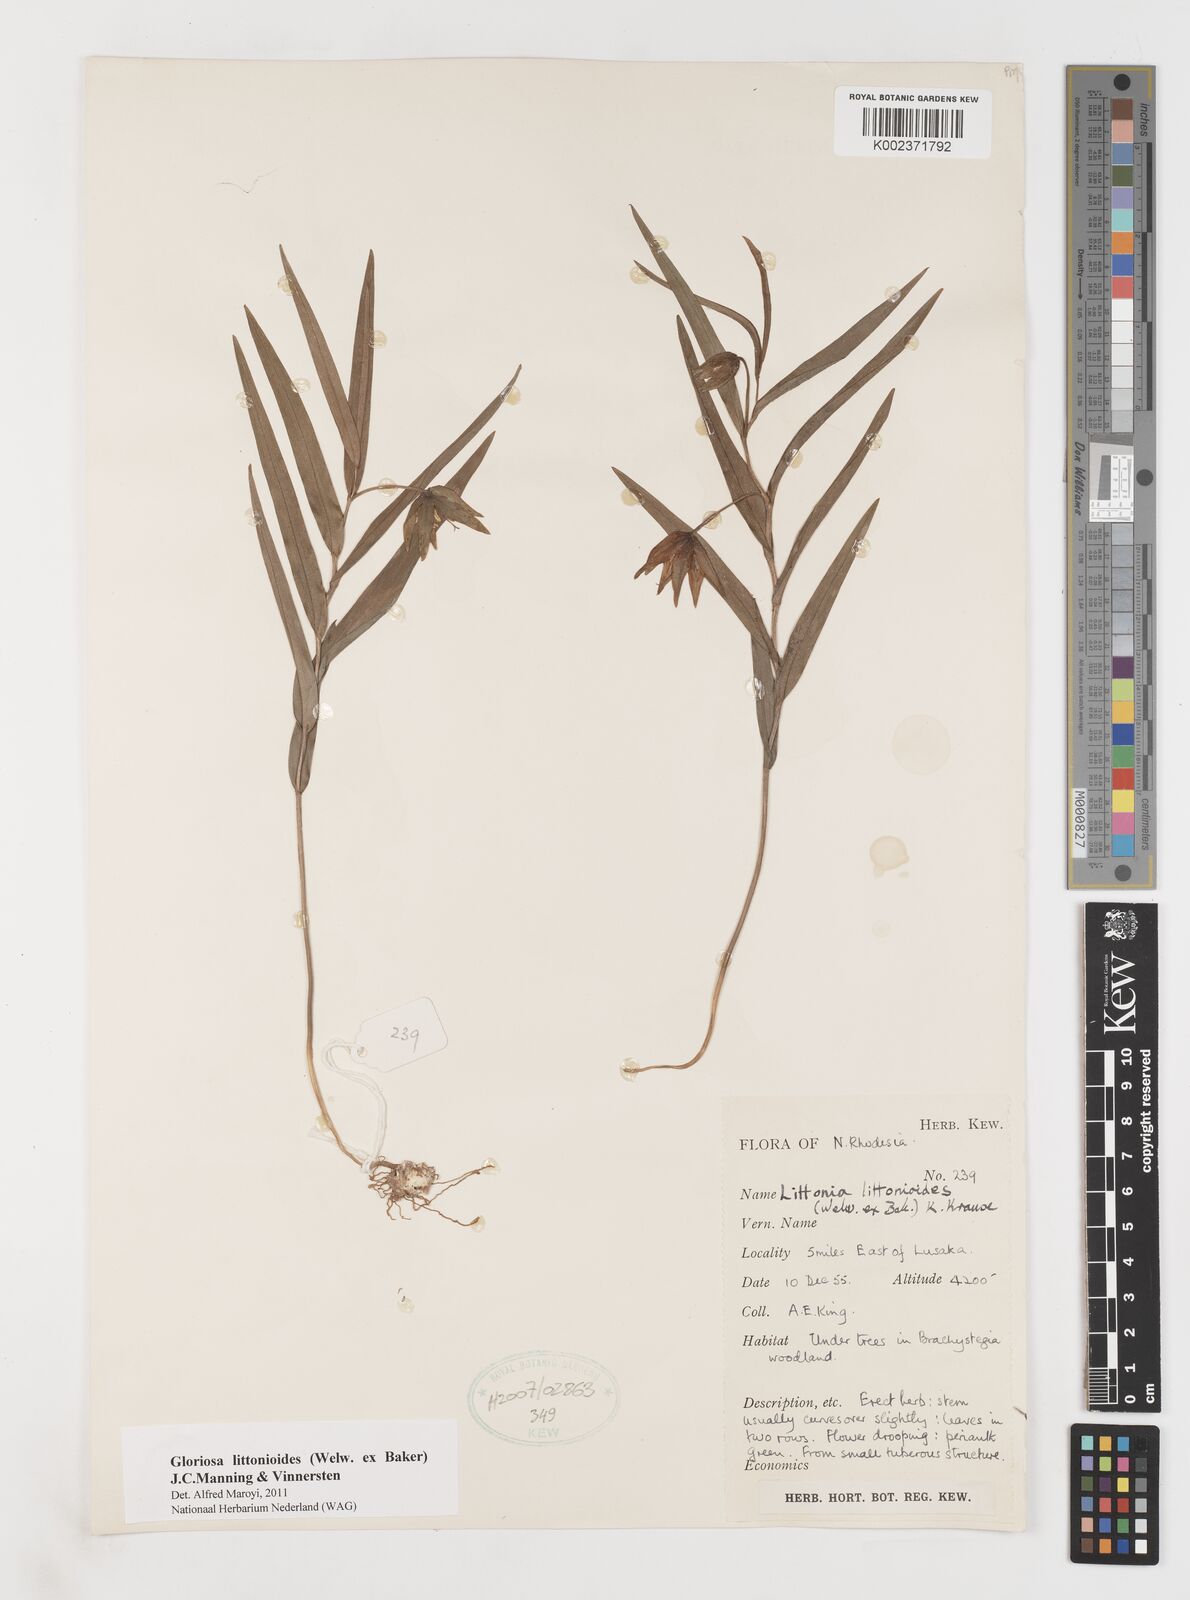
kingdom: Plantae
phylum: Tracheophyta
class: Liliopsida
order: Liliales
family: Colchicaceae
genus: Gloriosa
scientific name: Gloriosa littonioides
